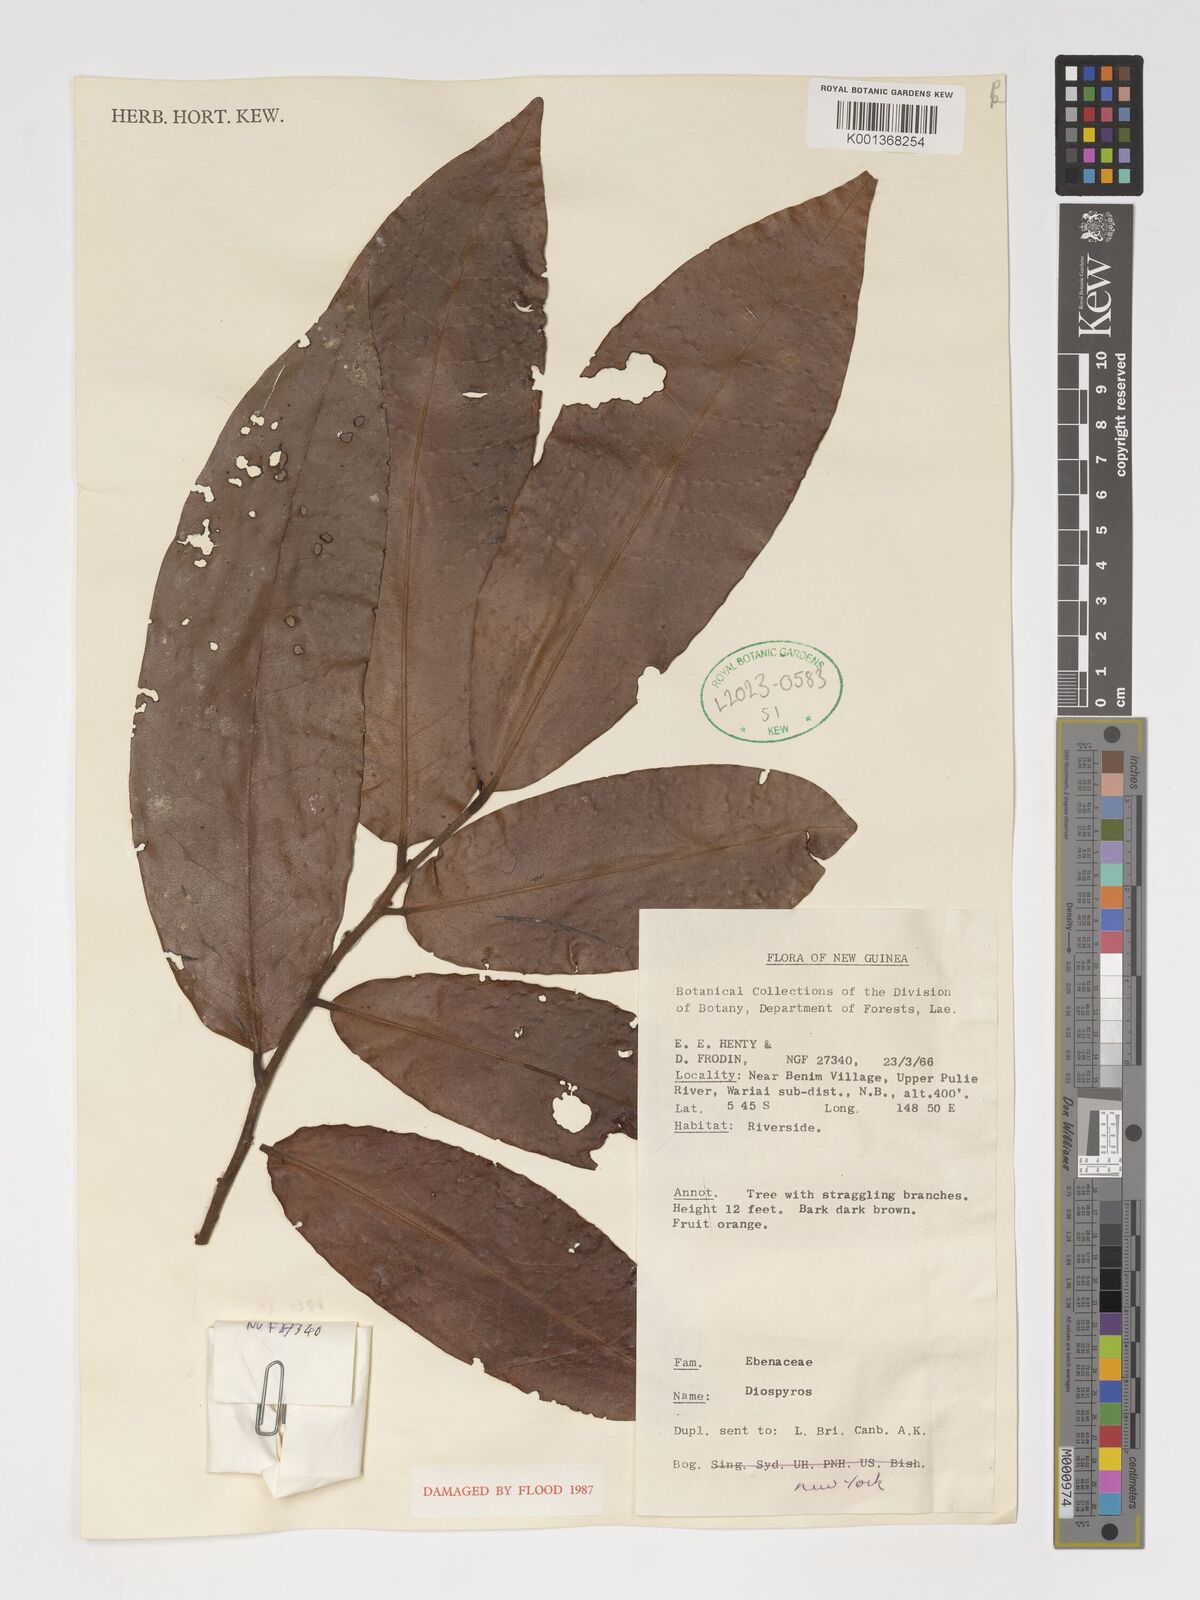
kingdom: Plantae
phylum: Tracheophyta
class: Magnoliopsida
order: Ericales
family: Ebenaceae
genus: Diospyros
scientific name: Diospyros
